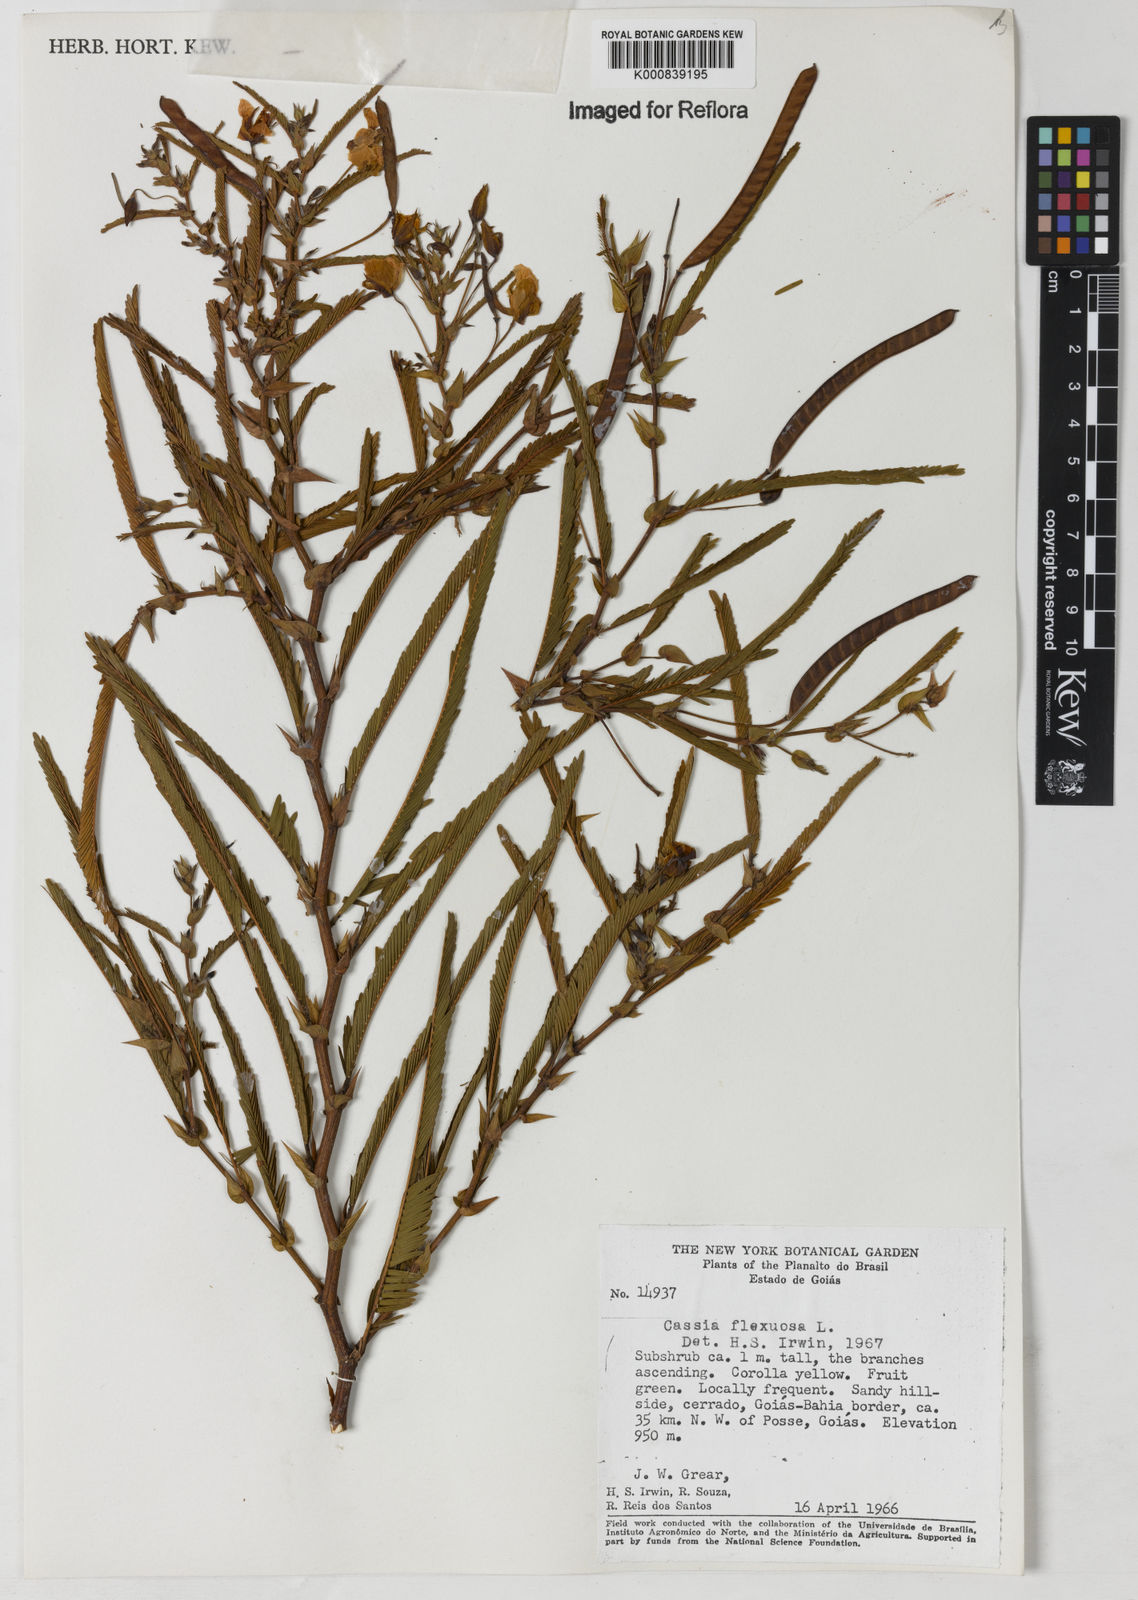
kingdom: Plantae
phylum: Tracheophyta
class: Magnoliopsida
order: Fabales
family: Fabaceae
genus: Chamaecrista
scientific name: Chamaecrista flexuosa
